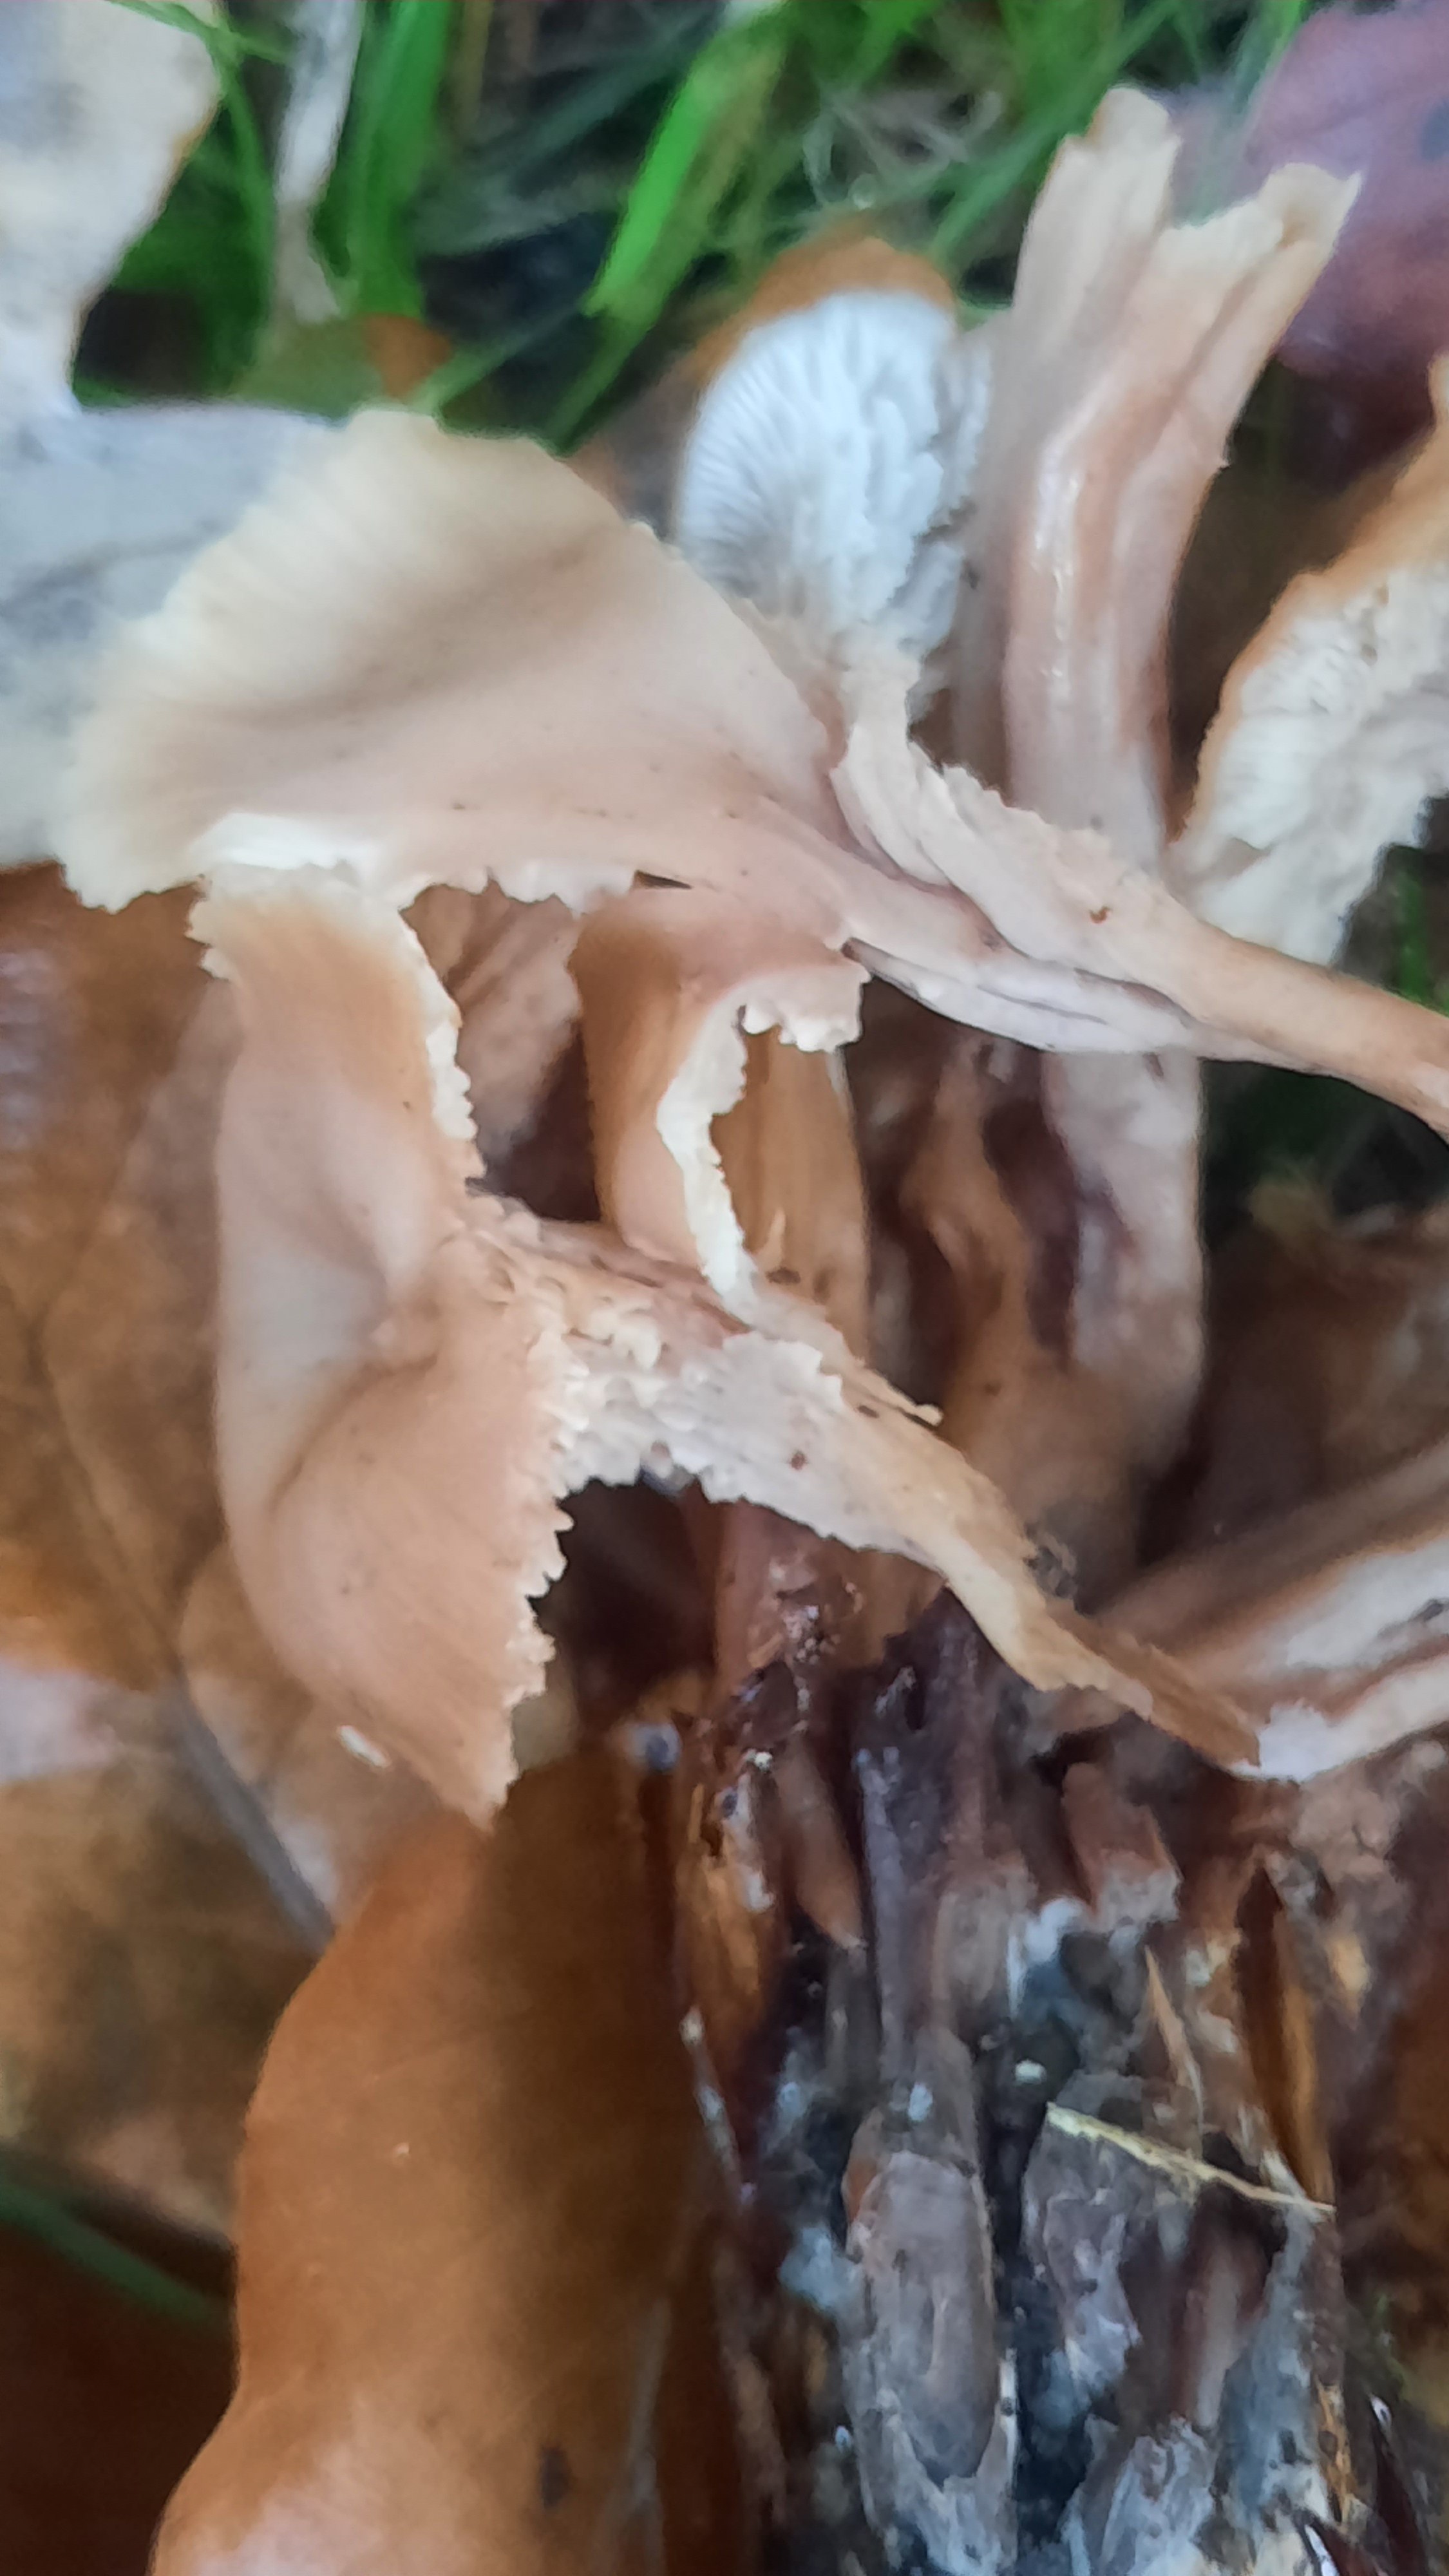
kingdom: Fungi
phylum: Basidiomycota
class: Agaricomycetes
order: Russulales
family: Auriscalpiaceae
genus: Lentinellus
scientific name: Lentinellus cochleatus
